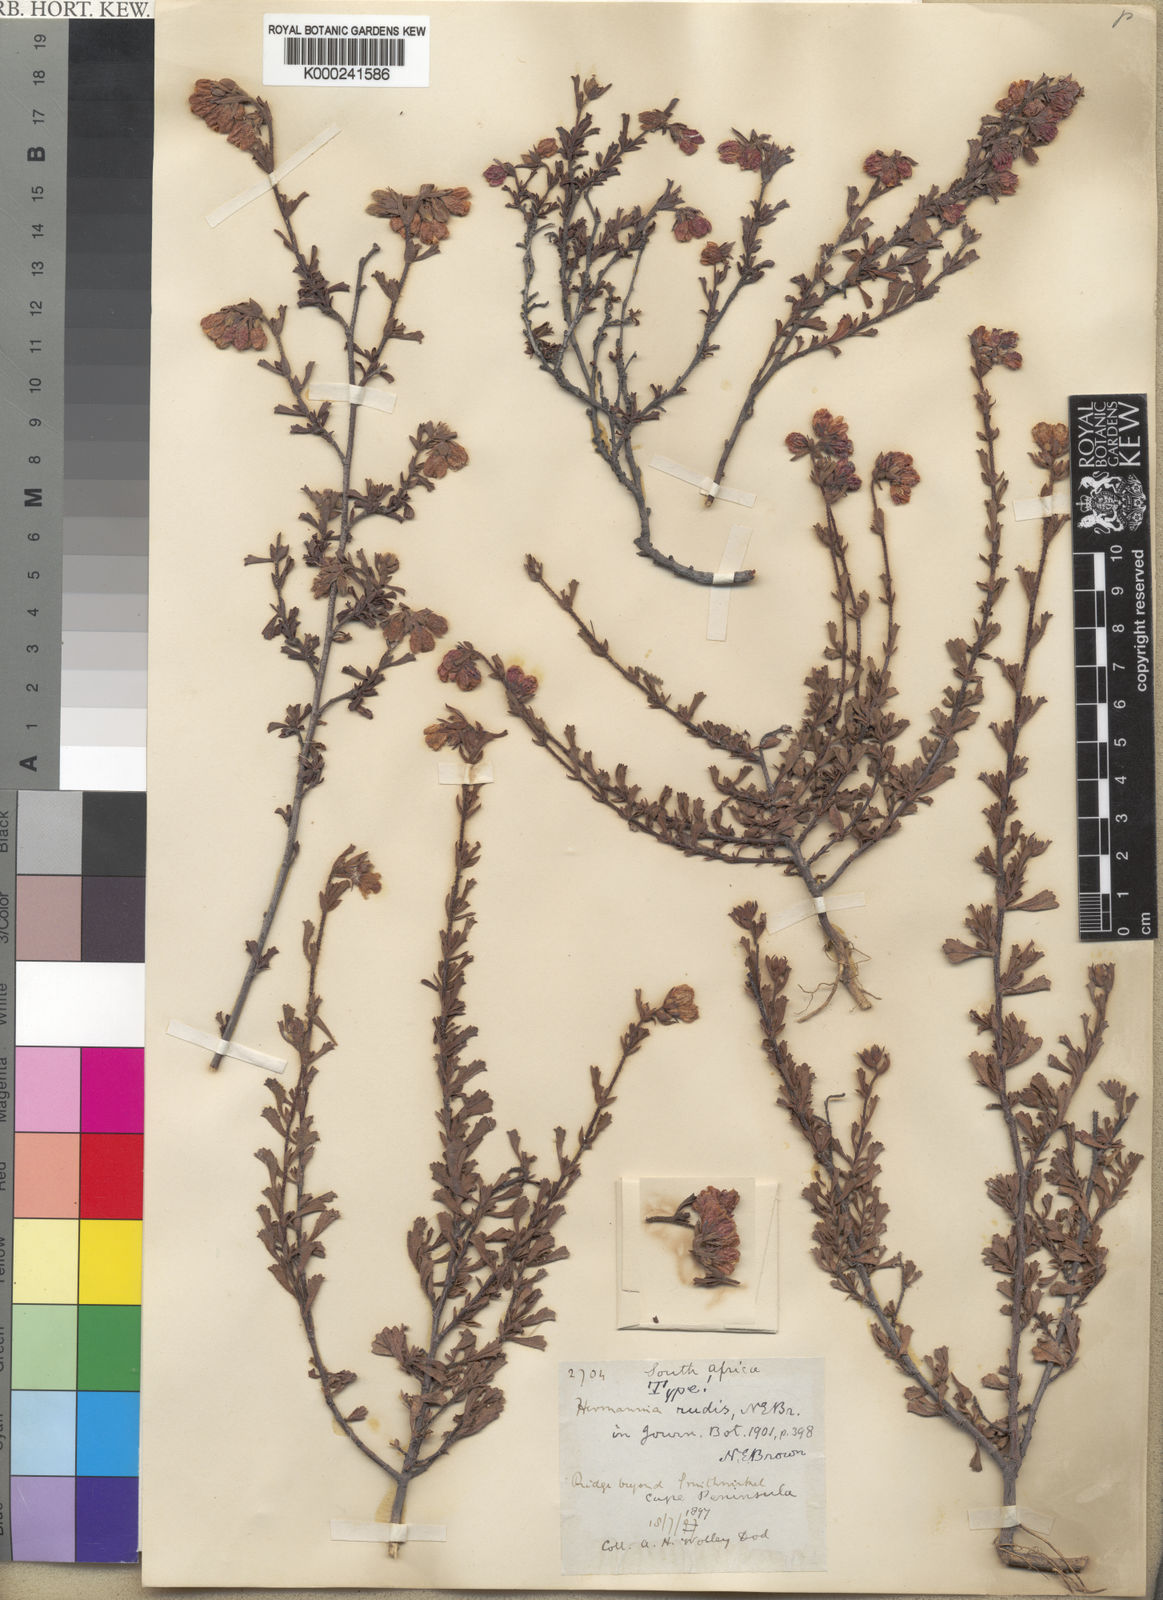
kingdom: Plantae
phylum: Tracheophyta
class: Magnoliopsida
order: Malvales
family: Malvaceae
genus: Hermannia
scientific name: Hermannia rudis
